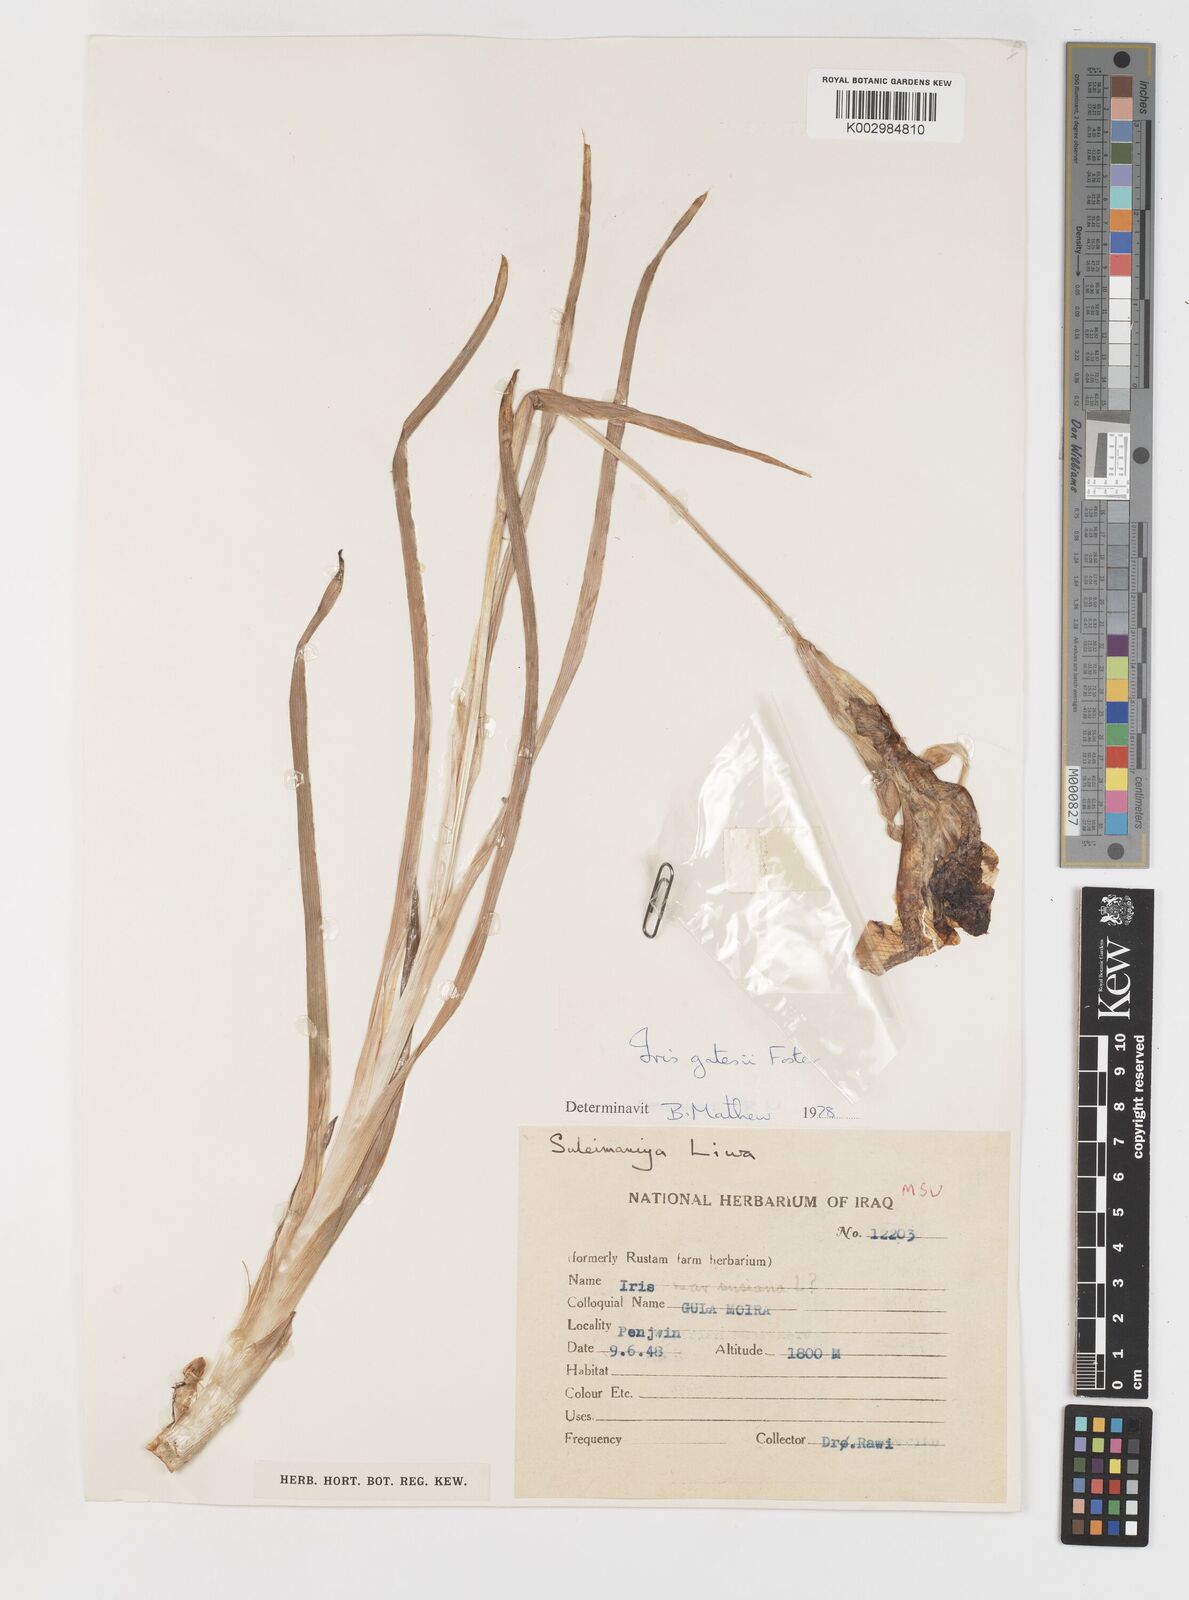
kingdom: Plantae
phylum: Tracheophyta
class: Liliopsida
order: Asparagales
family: Iridaceae
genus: Iris
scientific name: Iris gatesii
